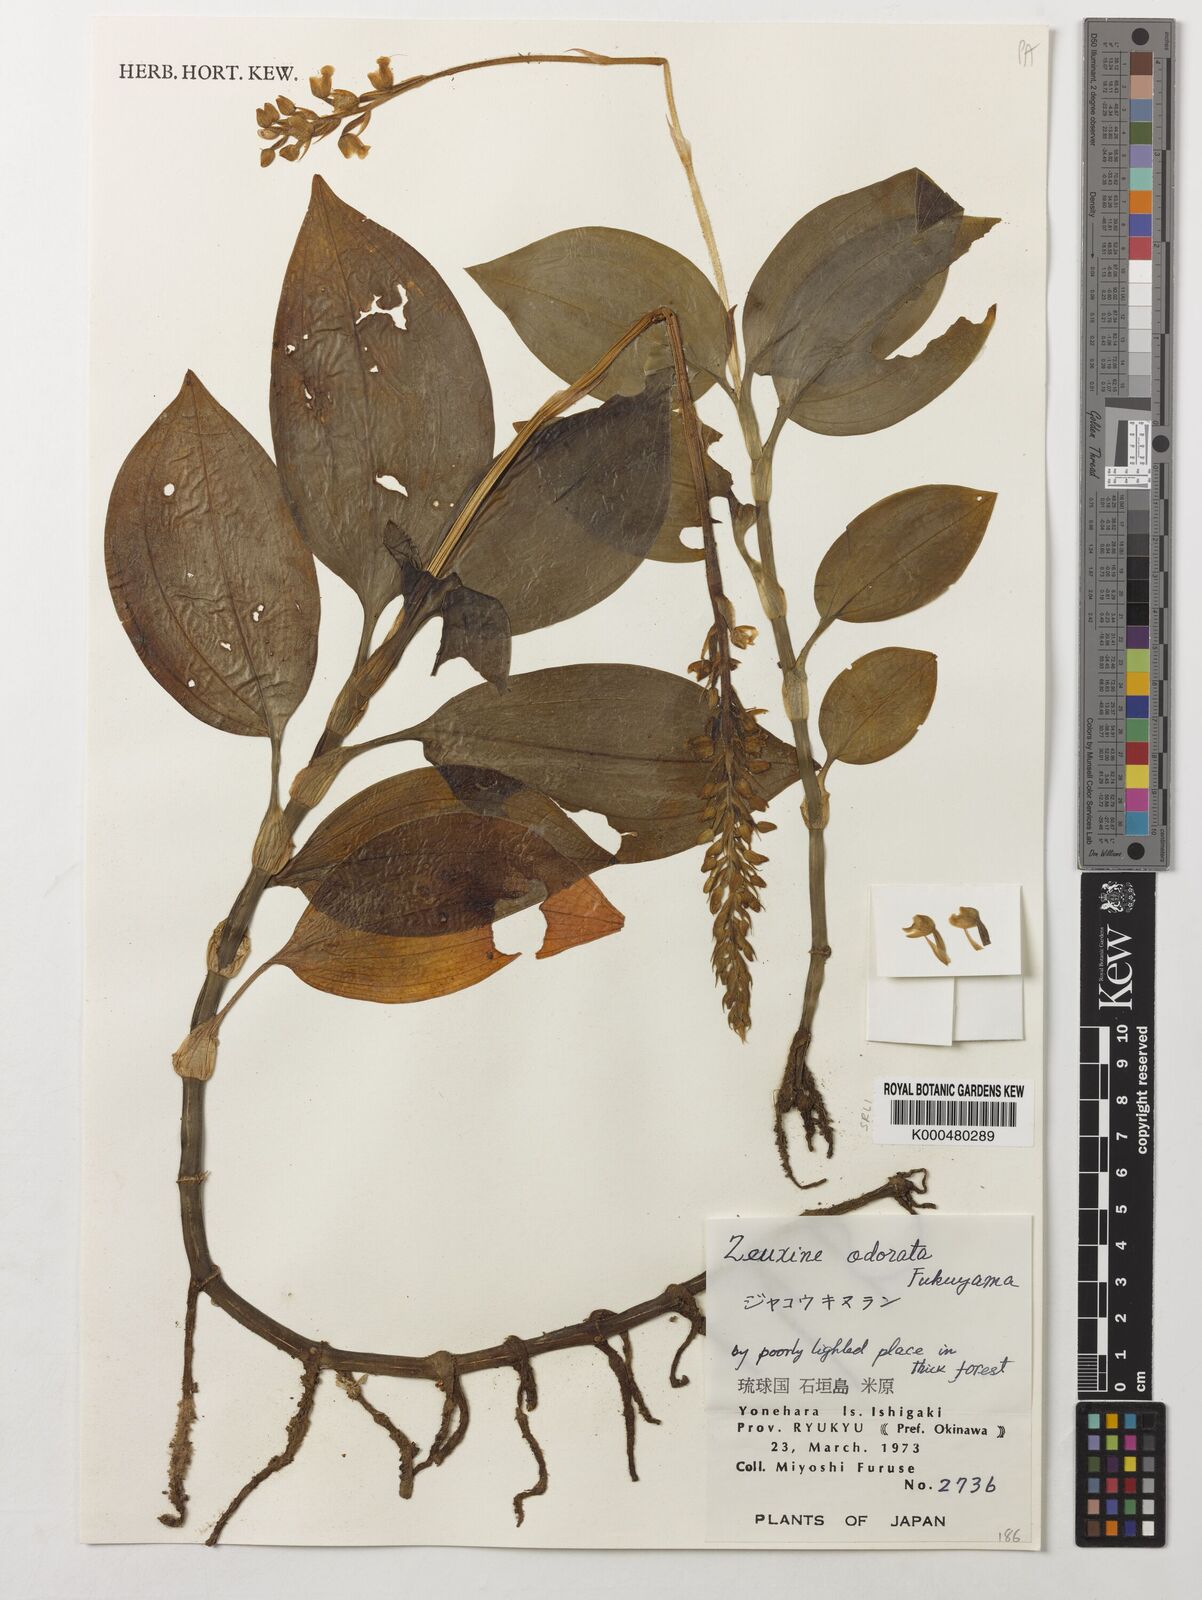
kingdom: Plantae
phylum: Tracheophyta
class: Liliopsida
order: Asparagales
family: Orchidaceae
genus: Zeuxine
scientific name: Zeuxine odorata
